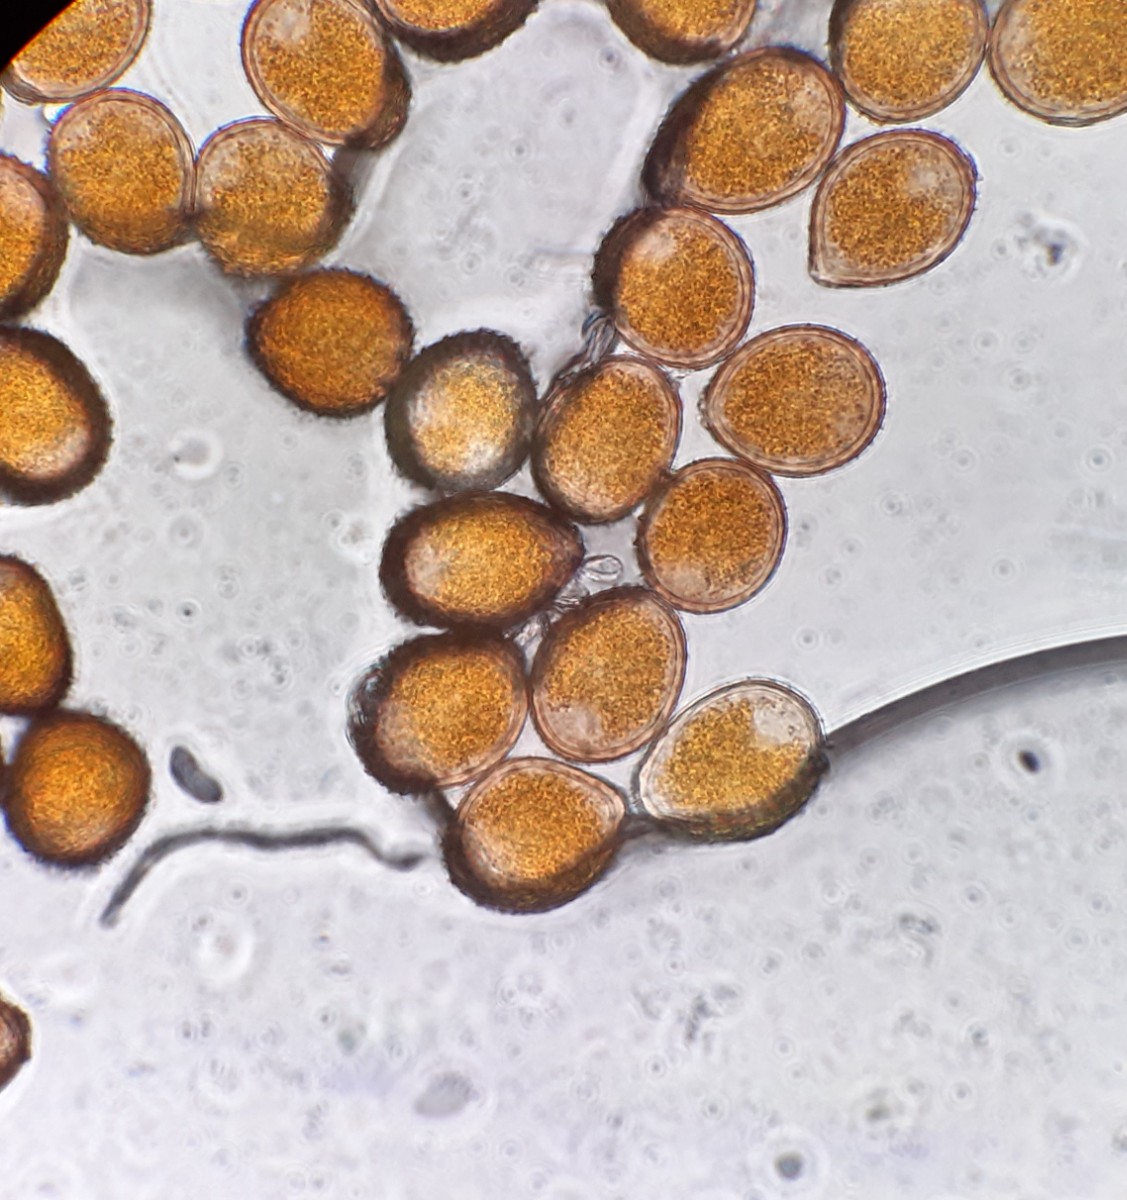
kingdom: Fungi
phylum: Basidiomycota
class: Pucciniomycetes
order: Pucciniales
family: Pucciniaceae
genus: Uromyces
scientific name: Uromyces betae
